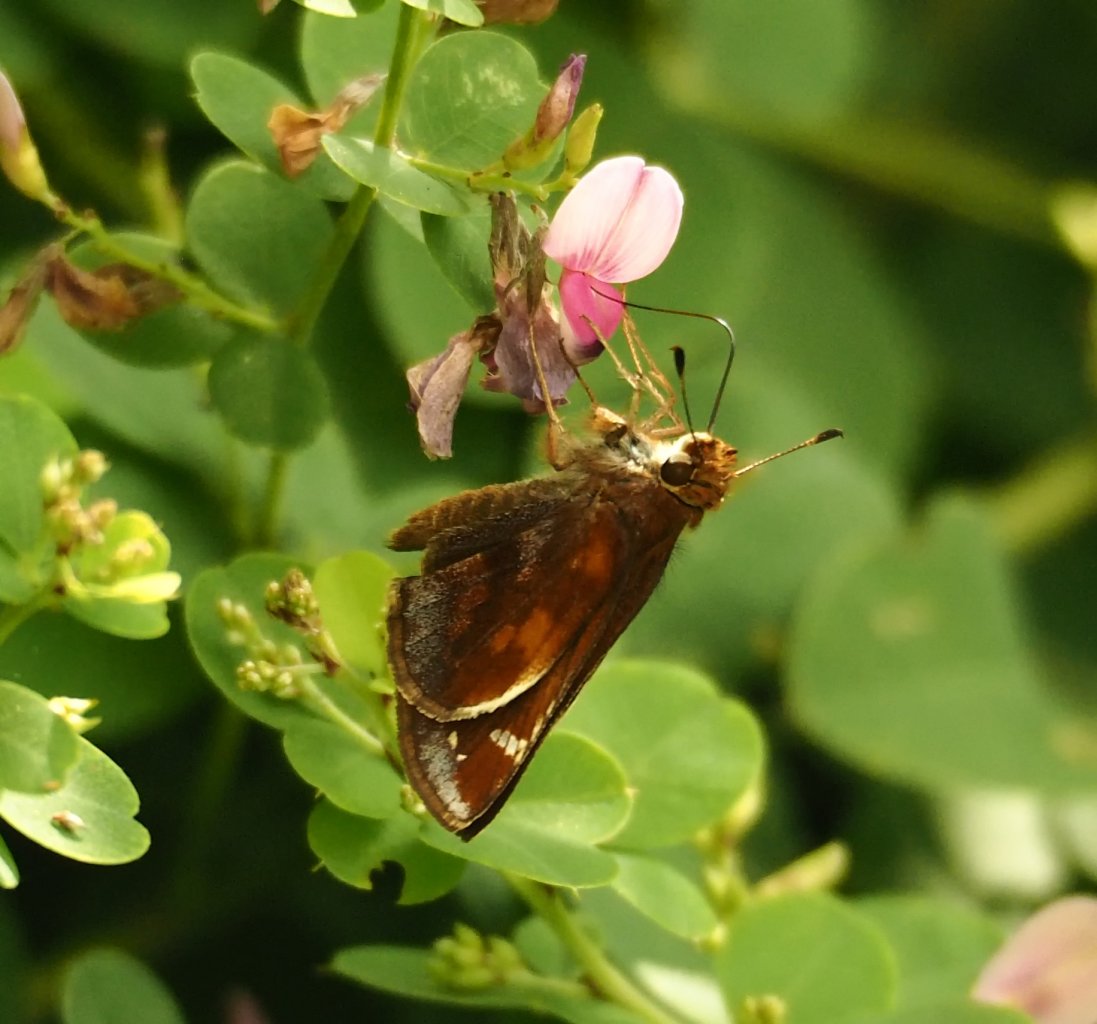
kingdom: Animalia
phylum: Arthropoda
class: Insecta
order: Lepidoptera
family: Hesperiidae
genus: Lon
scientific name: Lon zabulon
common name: Zabulon Skipper
